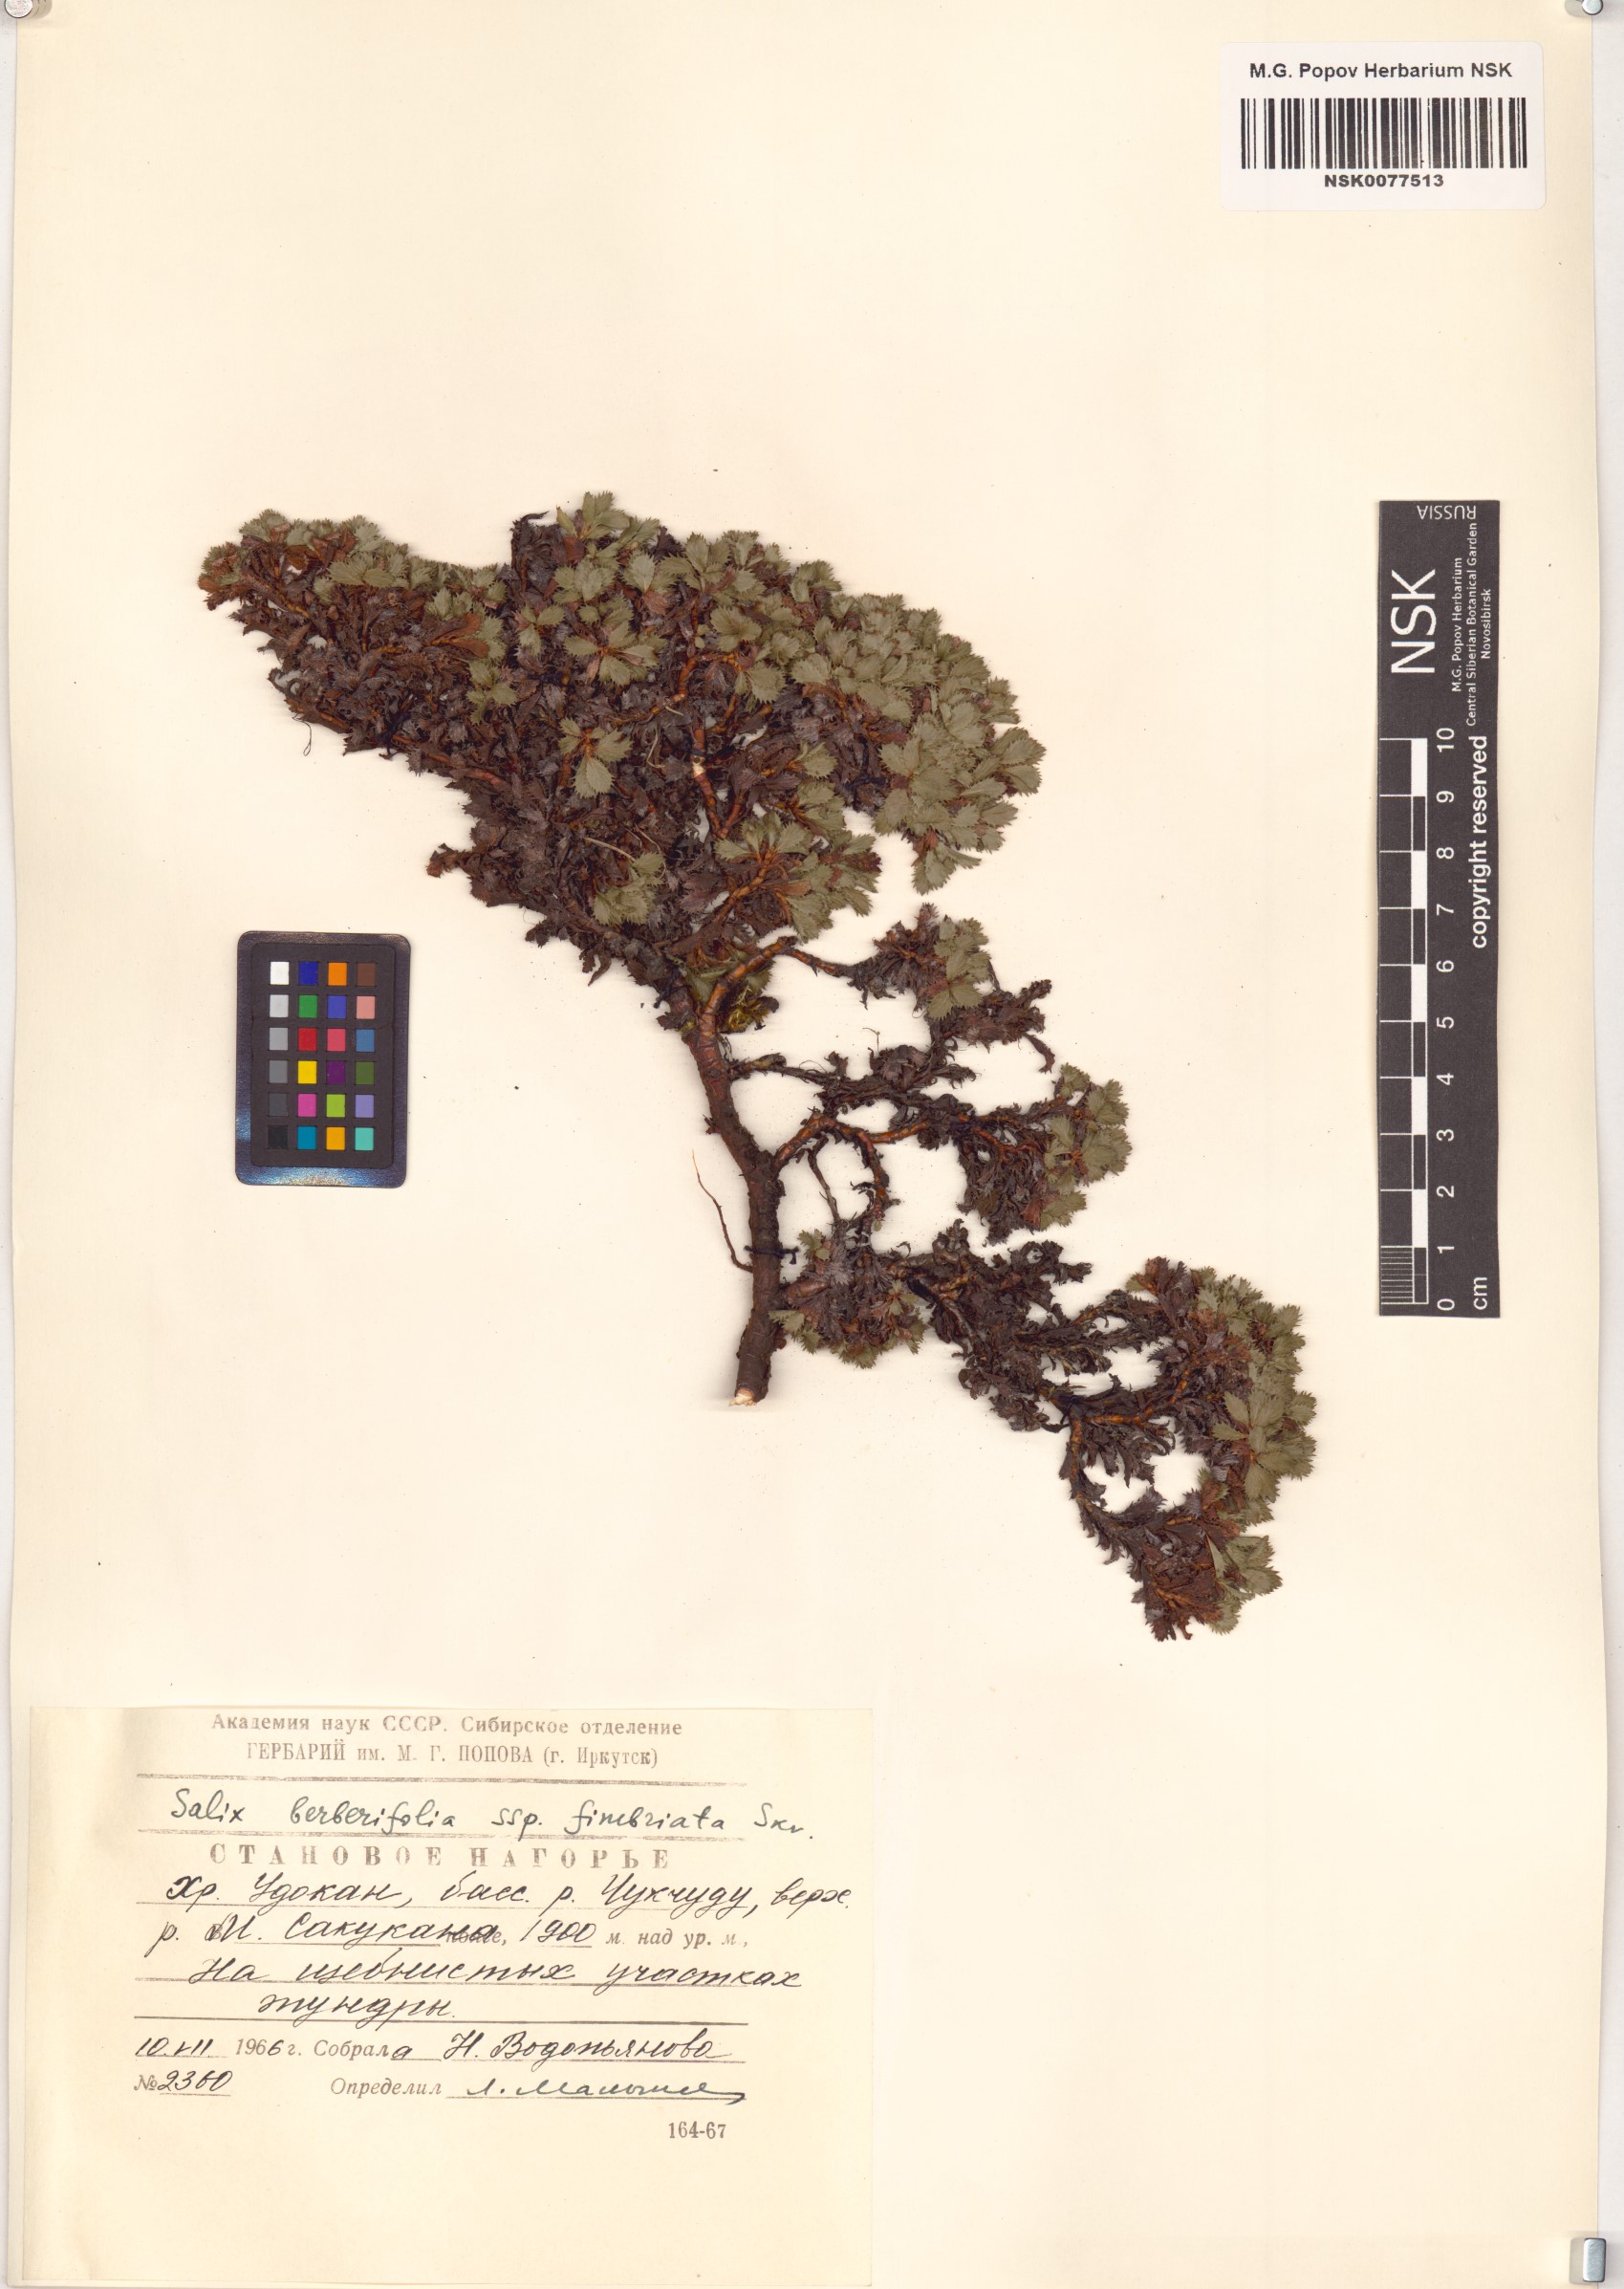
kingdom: Plantae
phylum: Tracheophyta
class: Magnoliopsida
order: Malpighiales
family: Salicaceae
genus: Salix
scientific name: Salix berberifolia
